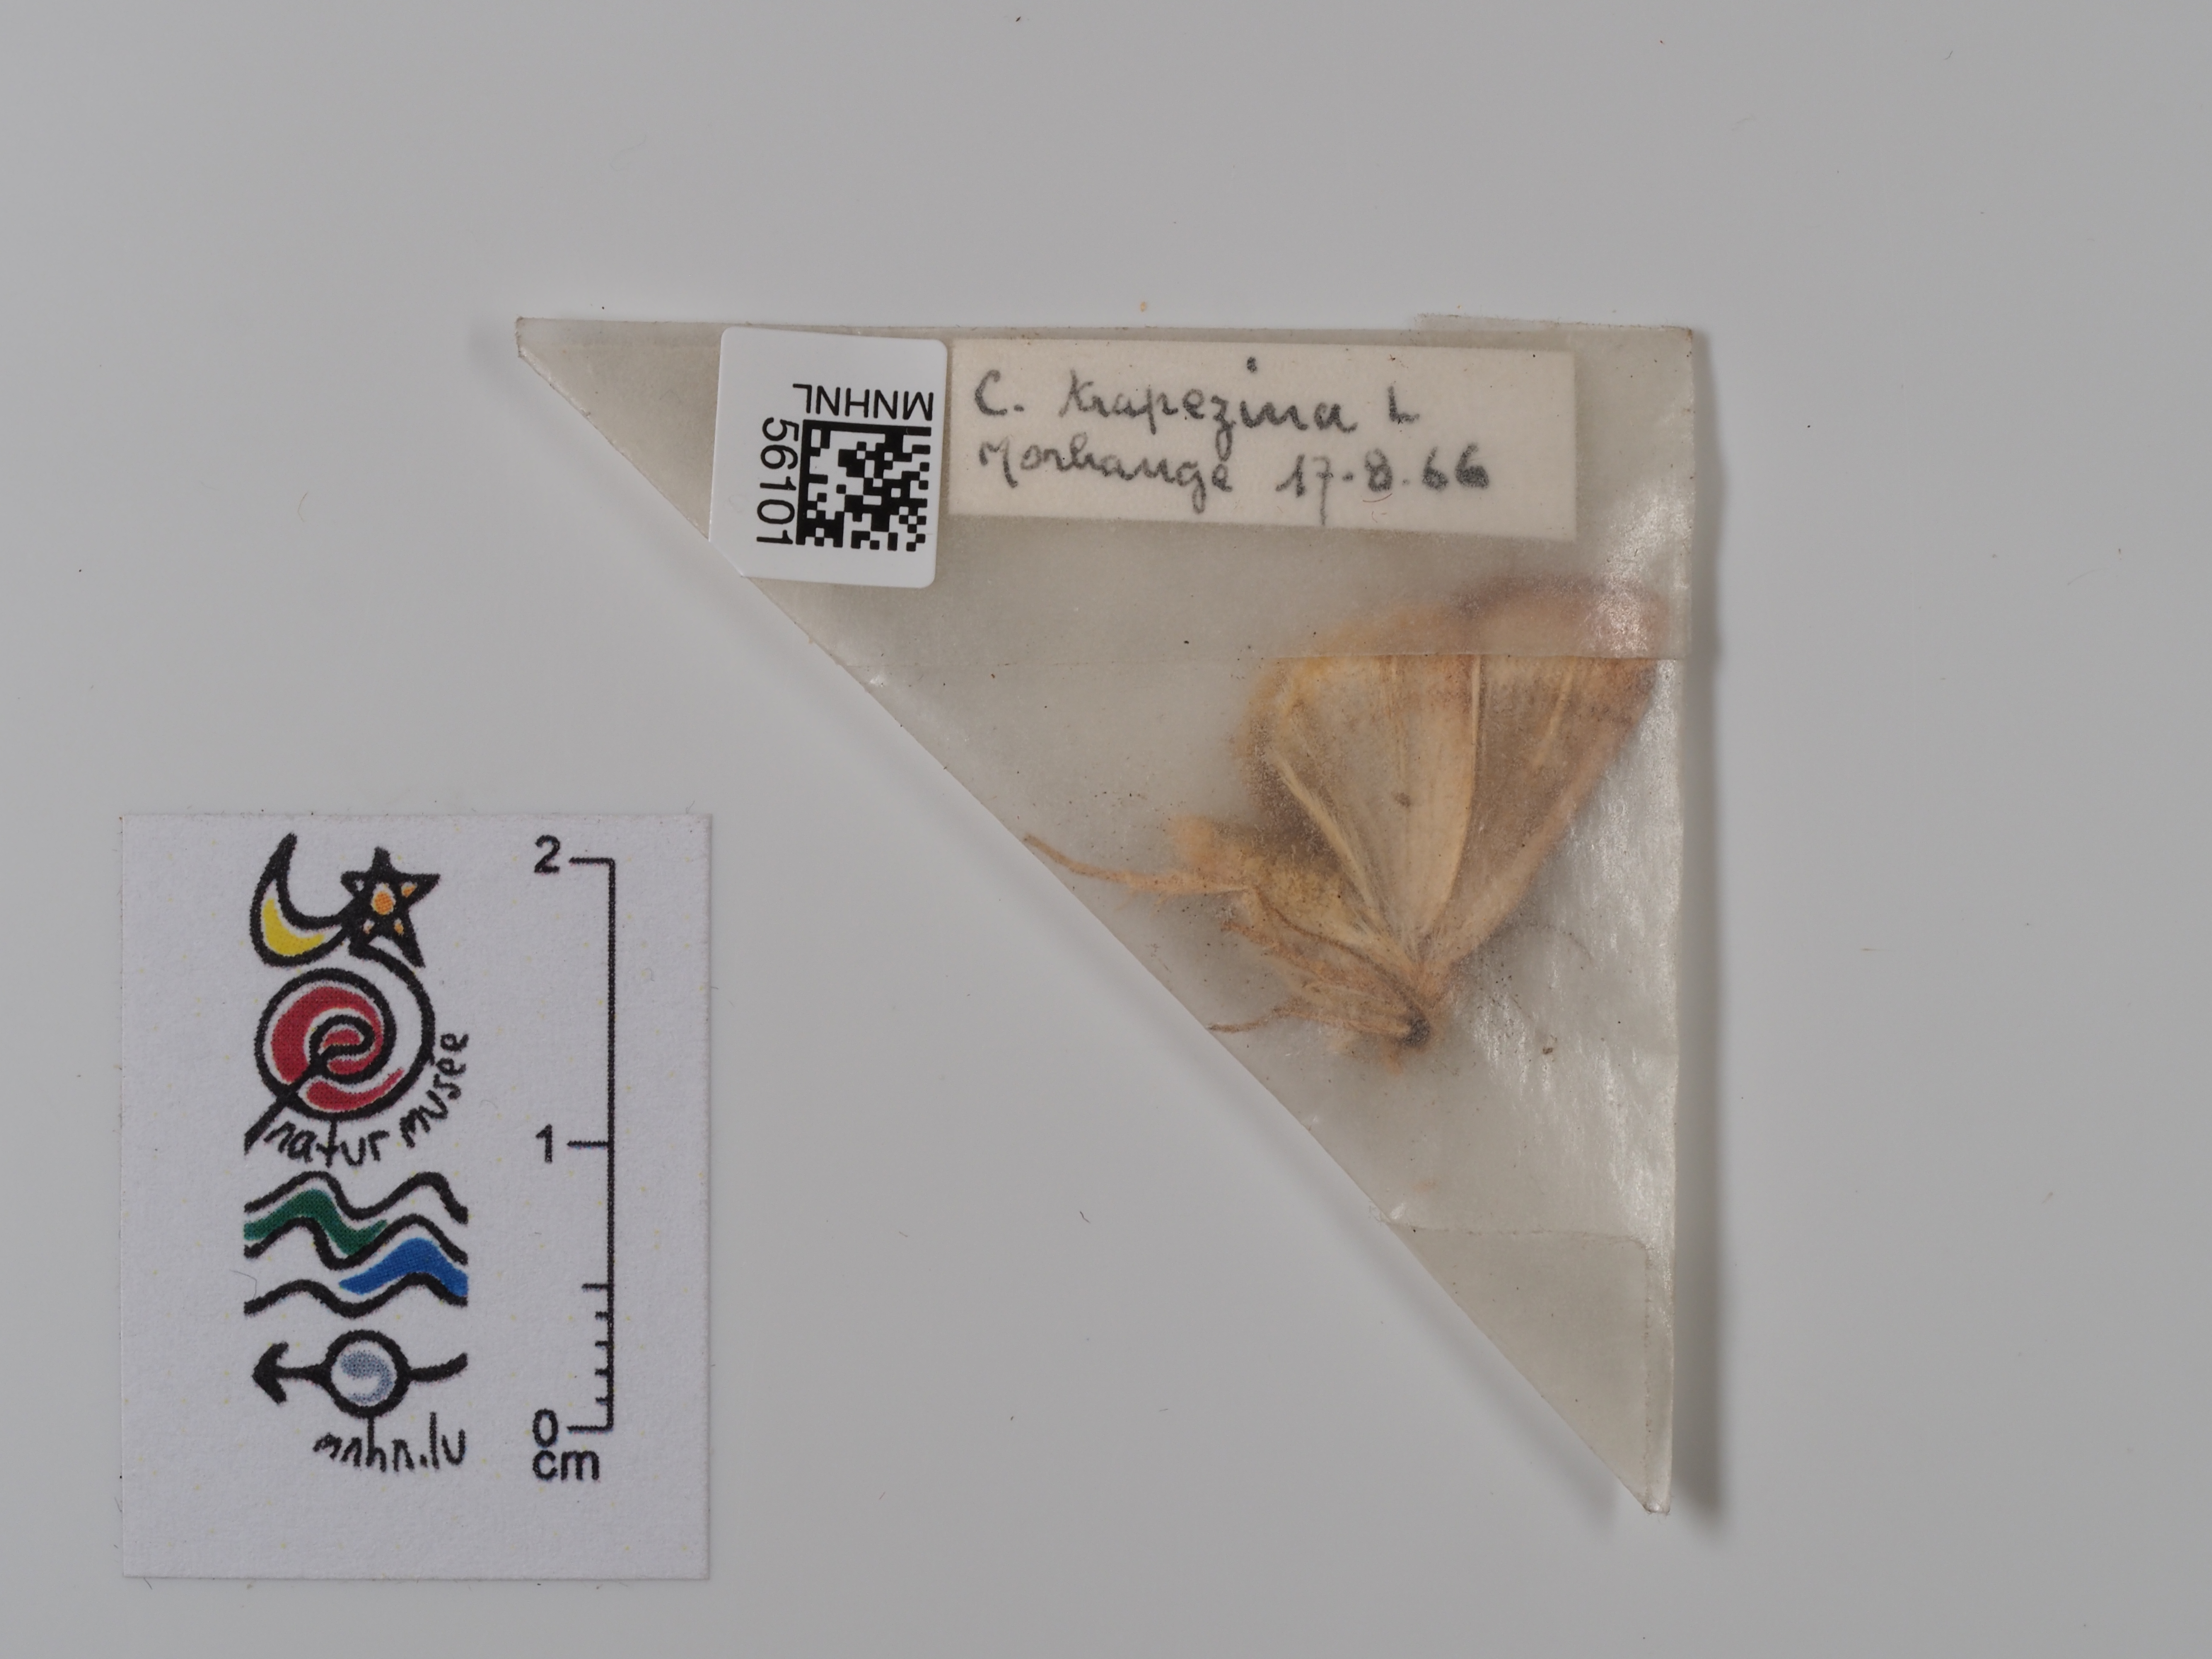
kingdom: Animalia
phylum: Arthropoda
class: Insecta
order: Lepidoptera
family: Noctuidae
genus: Cosmia
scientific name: Cosmia trapezina
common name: Dun-bar
